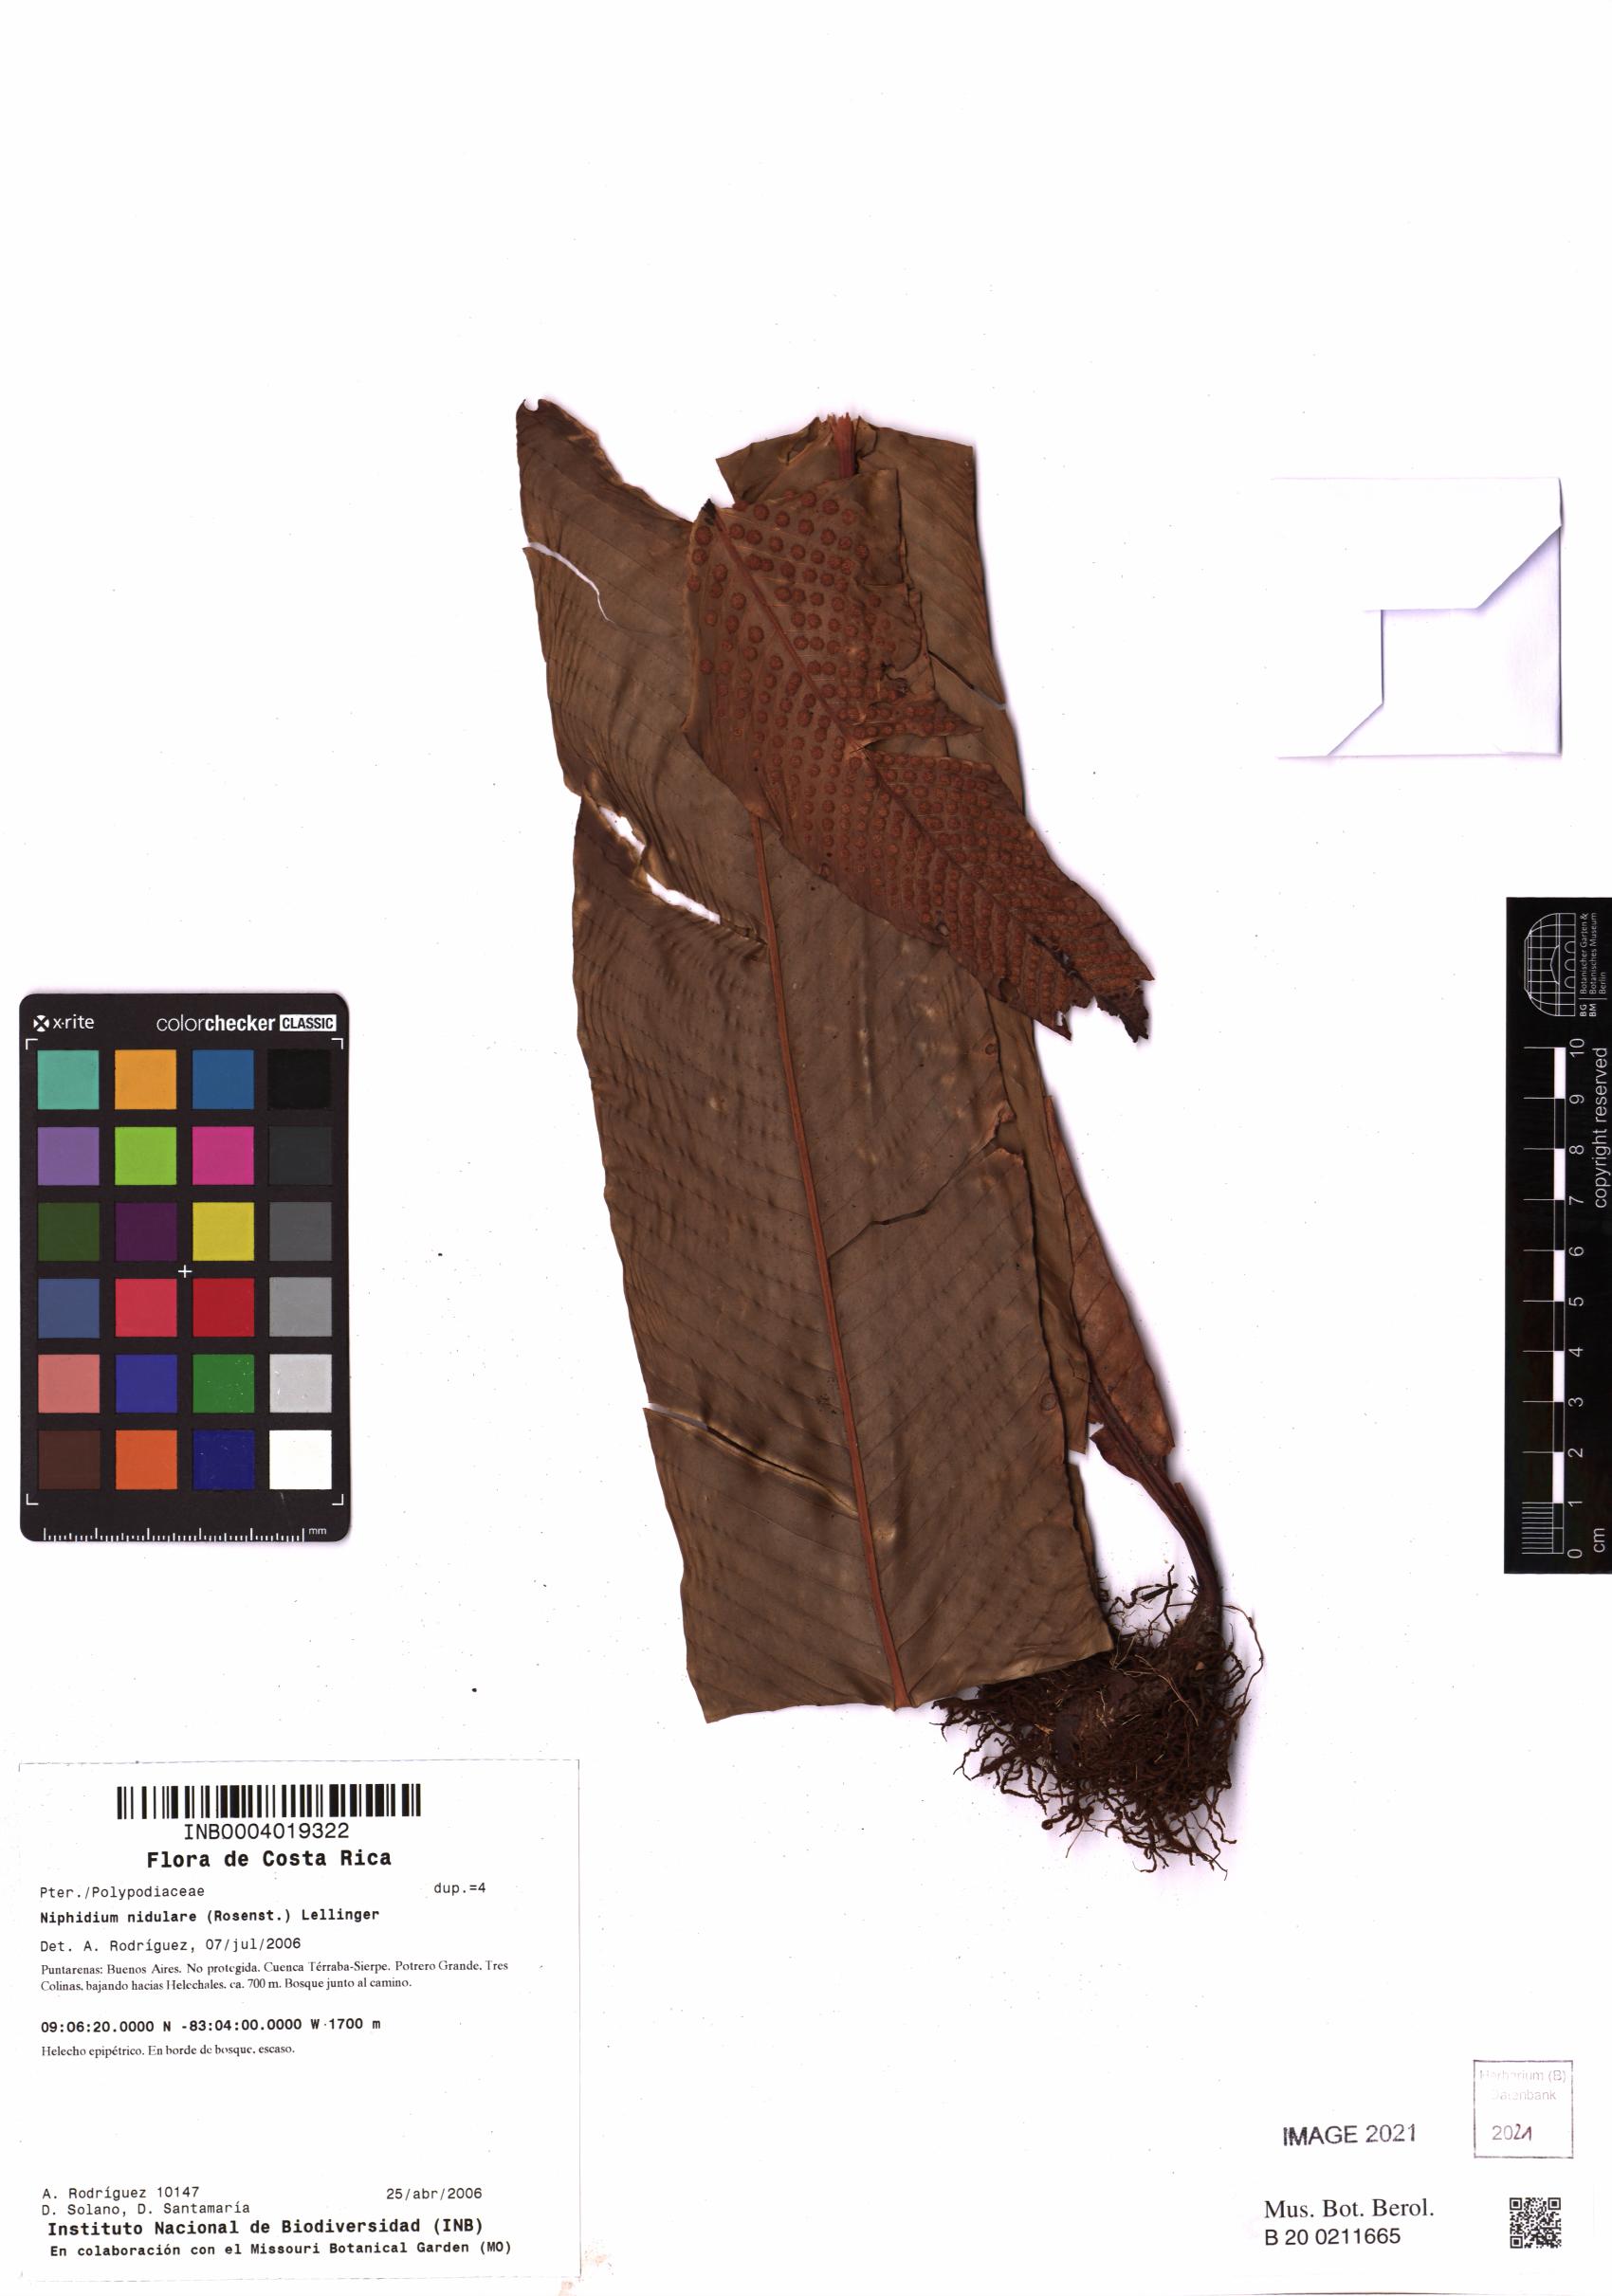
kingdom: Plantae
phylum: Tracheophyta
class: Polypodiopsida
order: Polypodiales
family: Polypodiaceae
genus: Niphidium
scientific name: Niphidium nidulare
